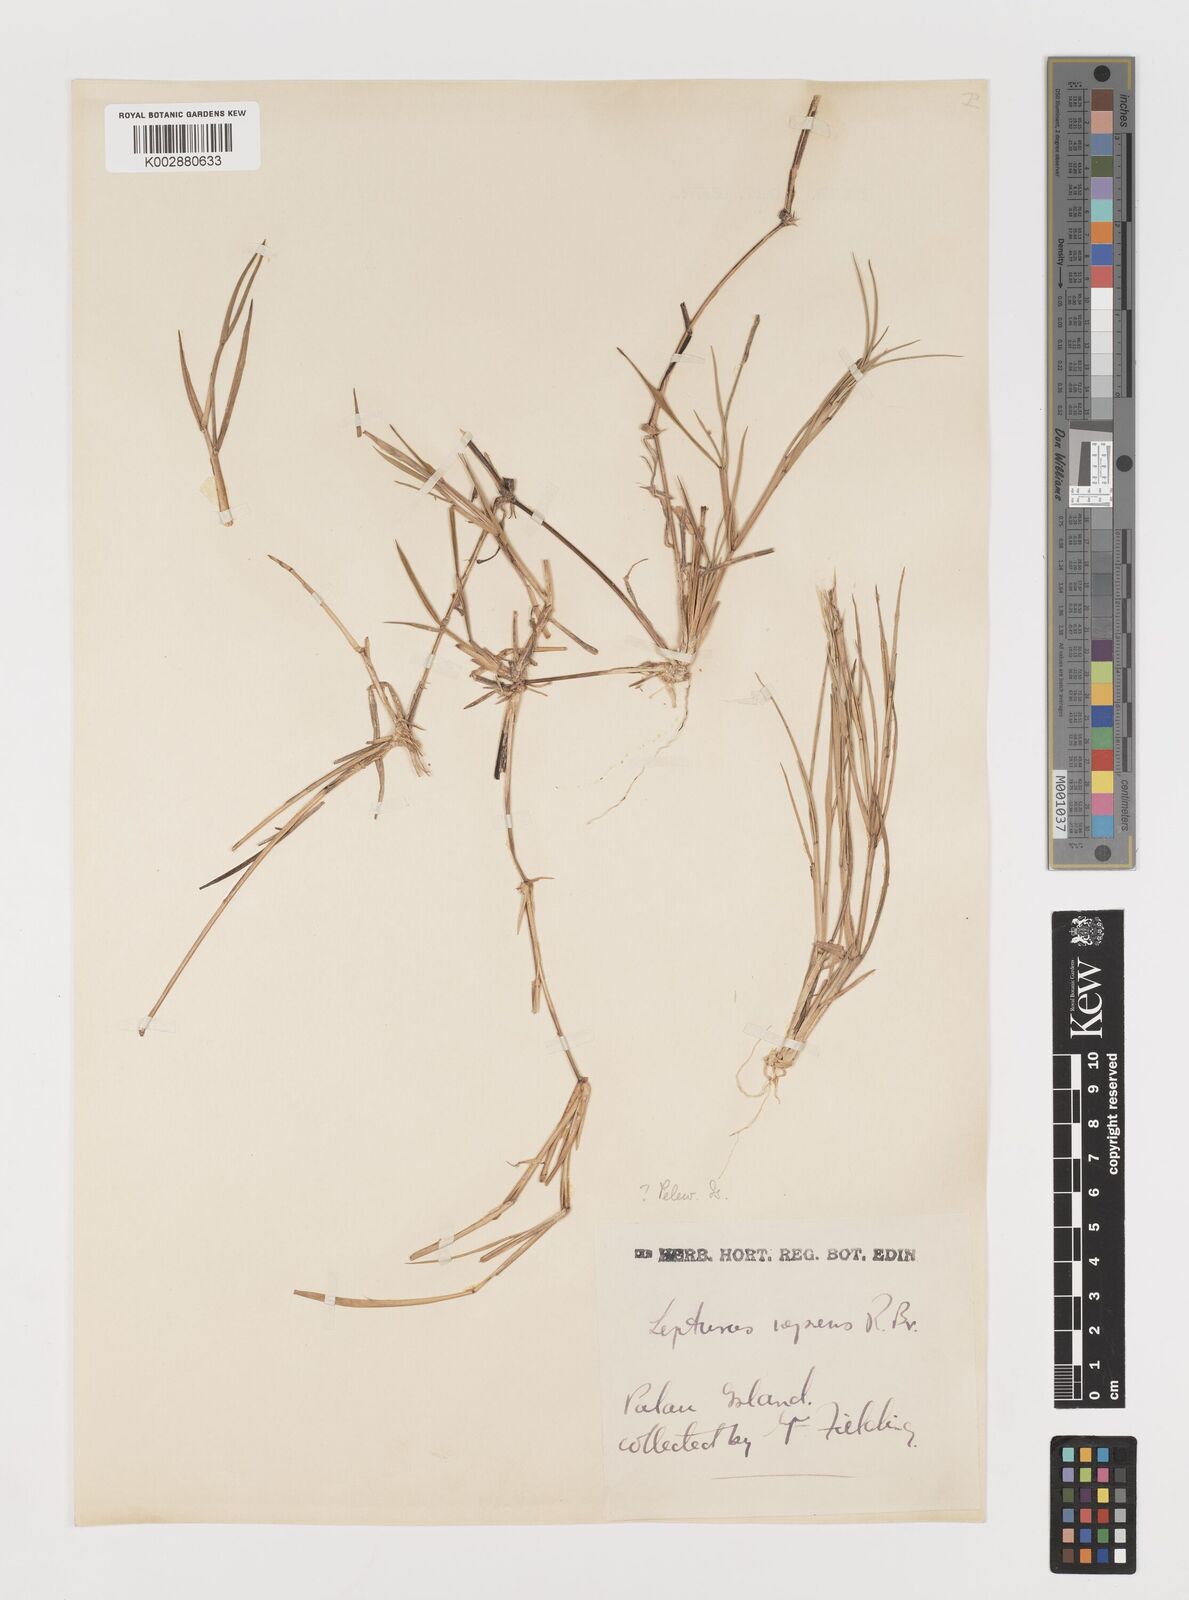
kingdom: Plantae
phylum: Tracheophyta
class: Liliopsida
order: Poales
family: Poaceae
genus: Lepturus
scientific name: Lepturus repens
